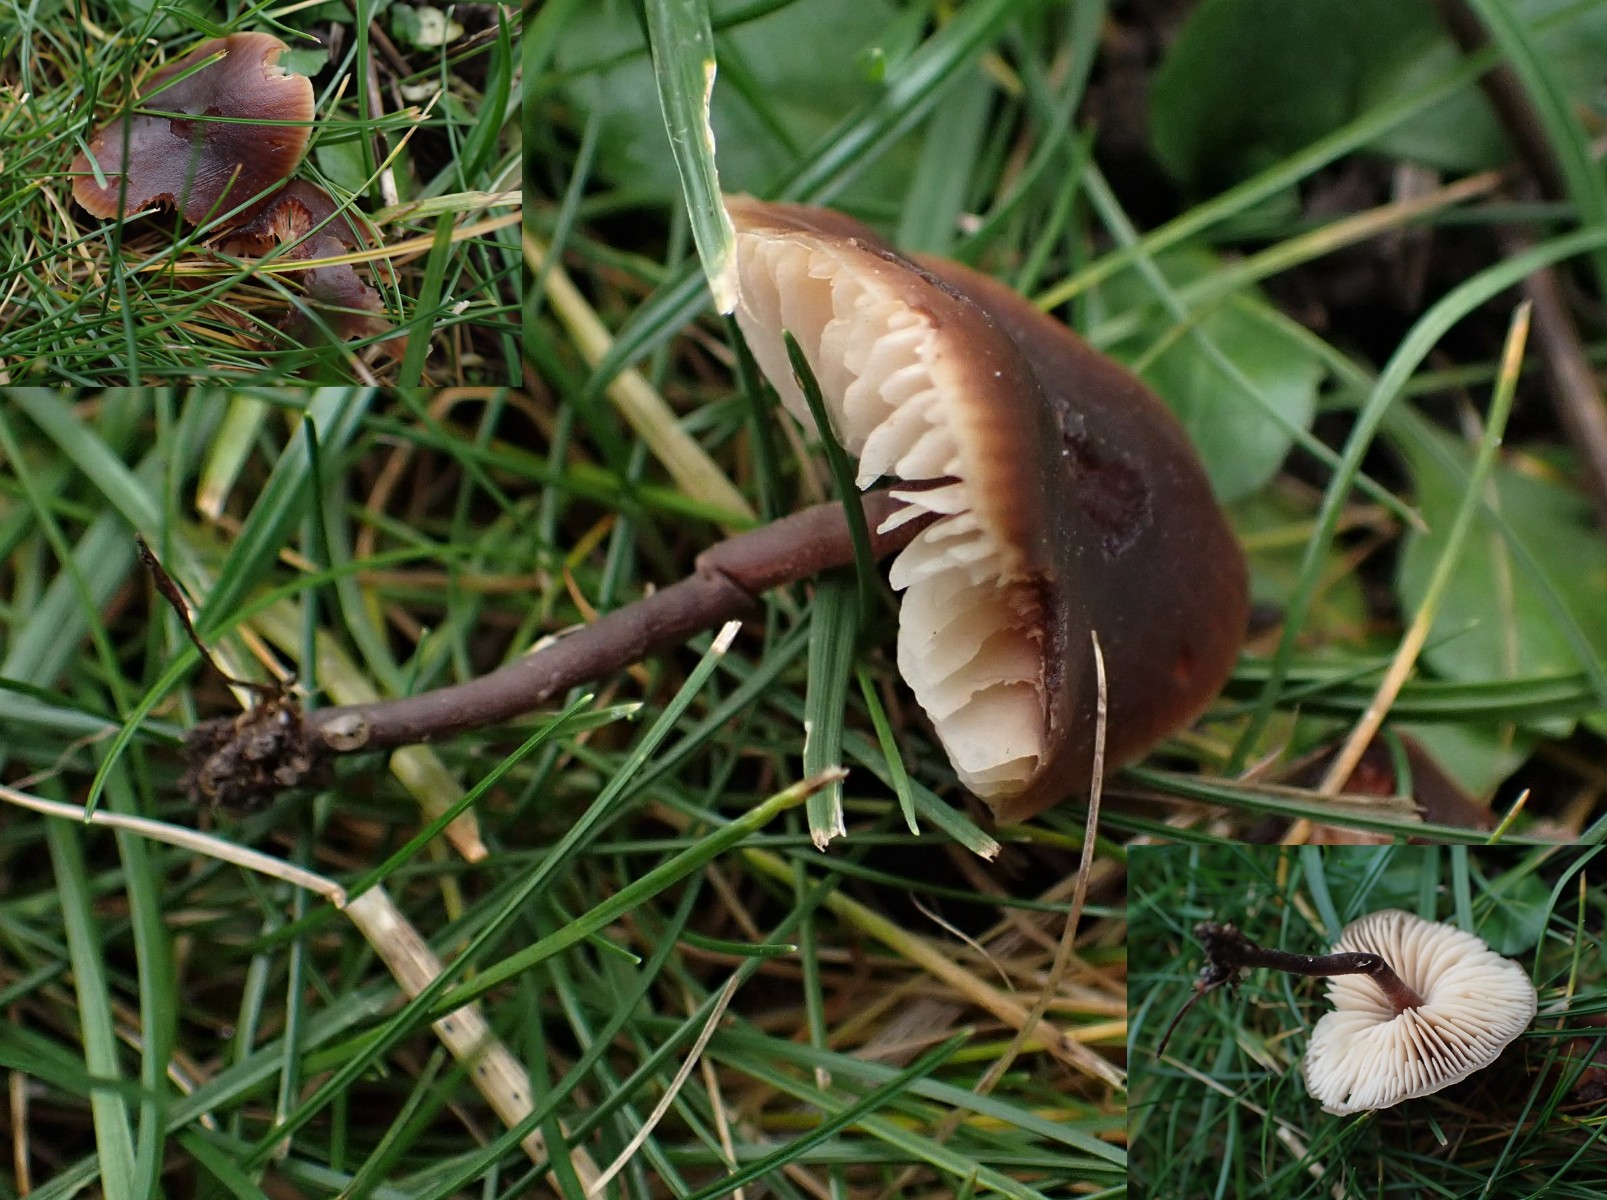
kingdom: Fungi
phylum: Basidiomycota
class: Agaricomycetes
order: Agaricales
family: Macrocystidiaceae
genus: Macrocystidia
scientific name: Macrocystidia cucumis
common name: agurkehat
